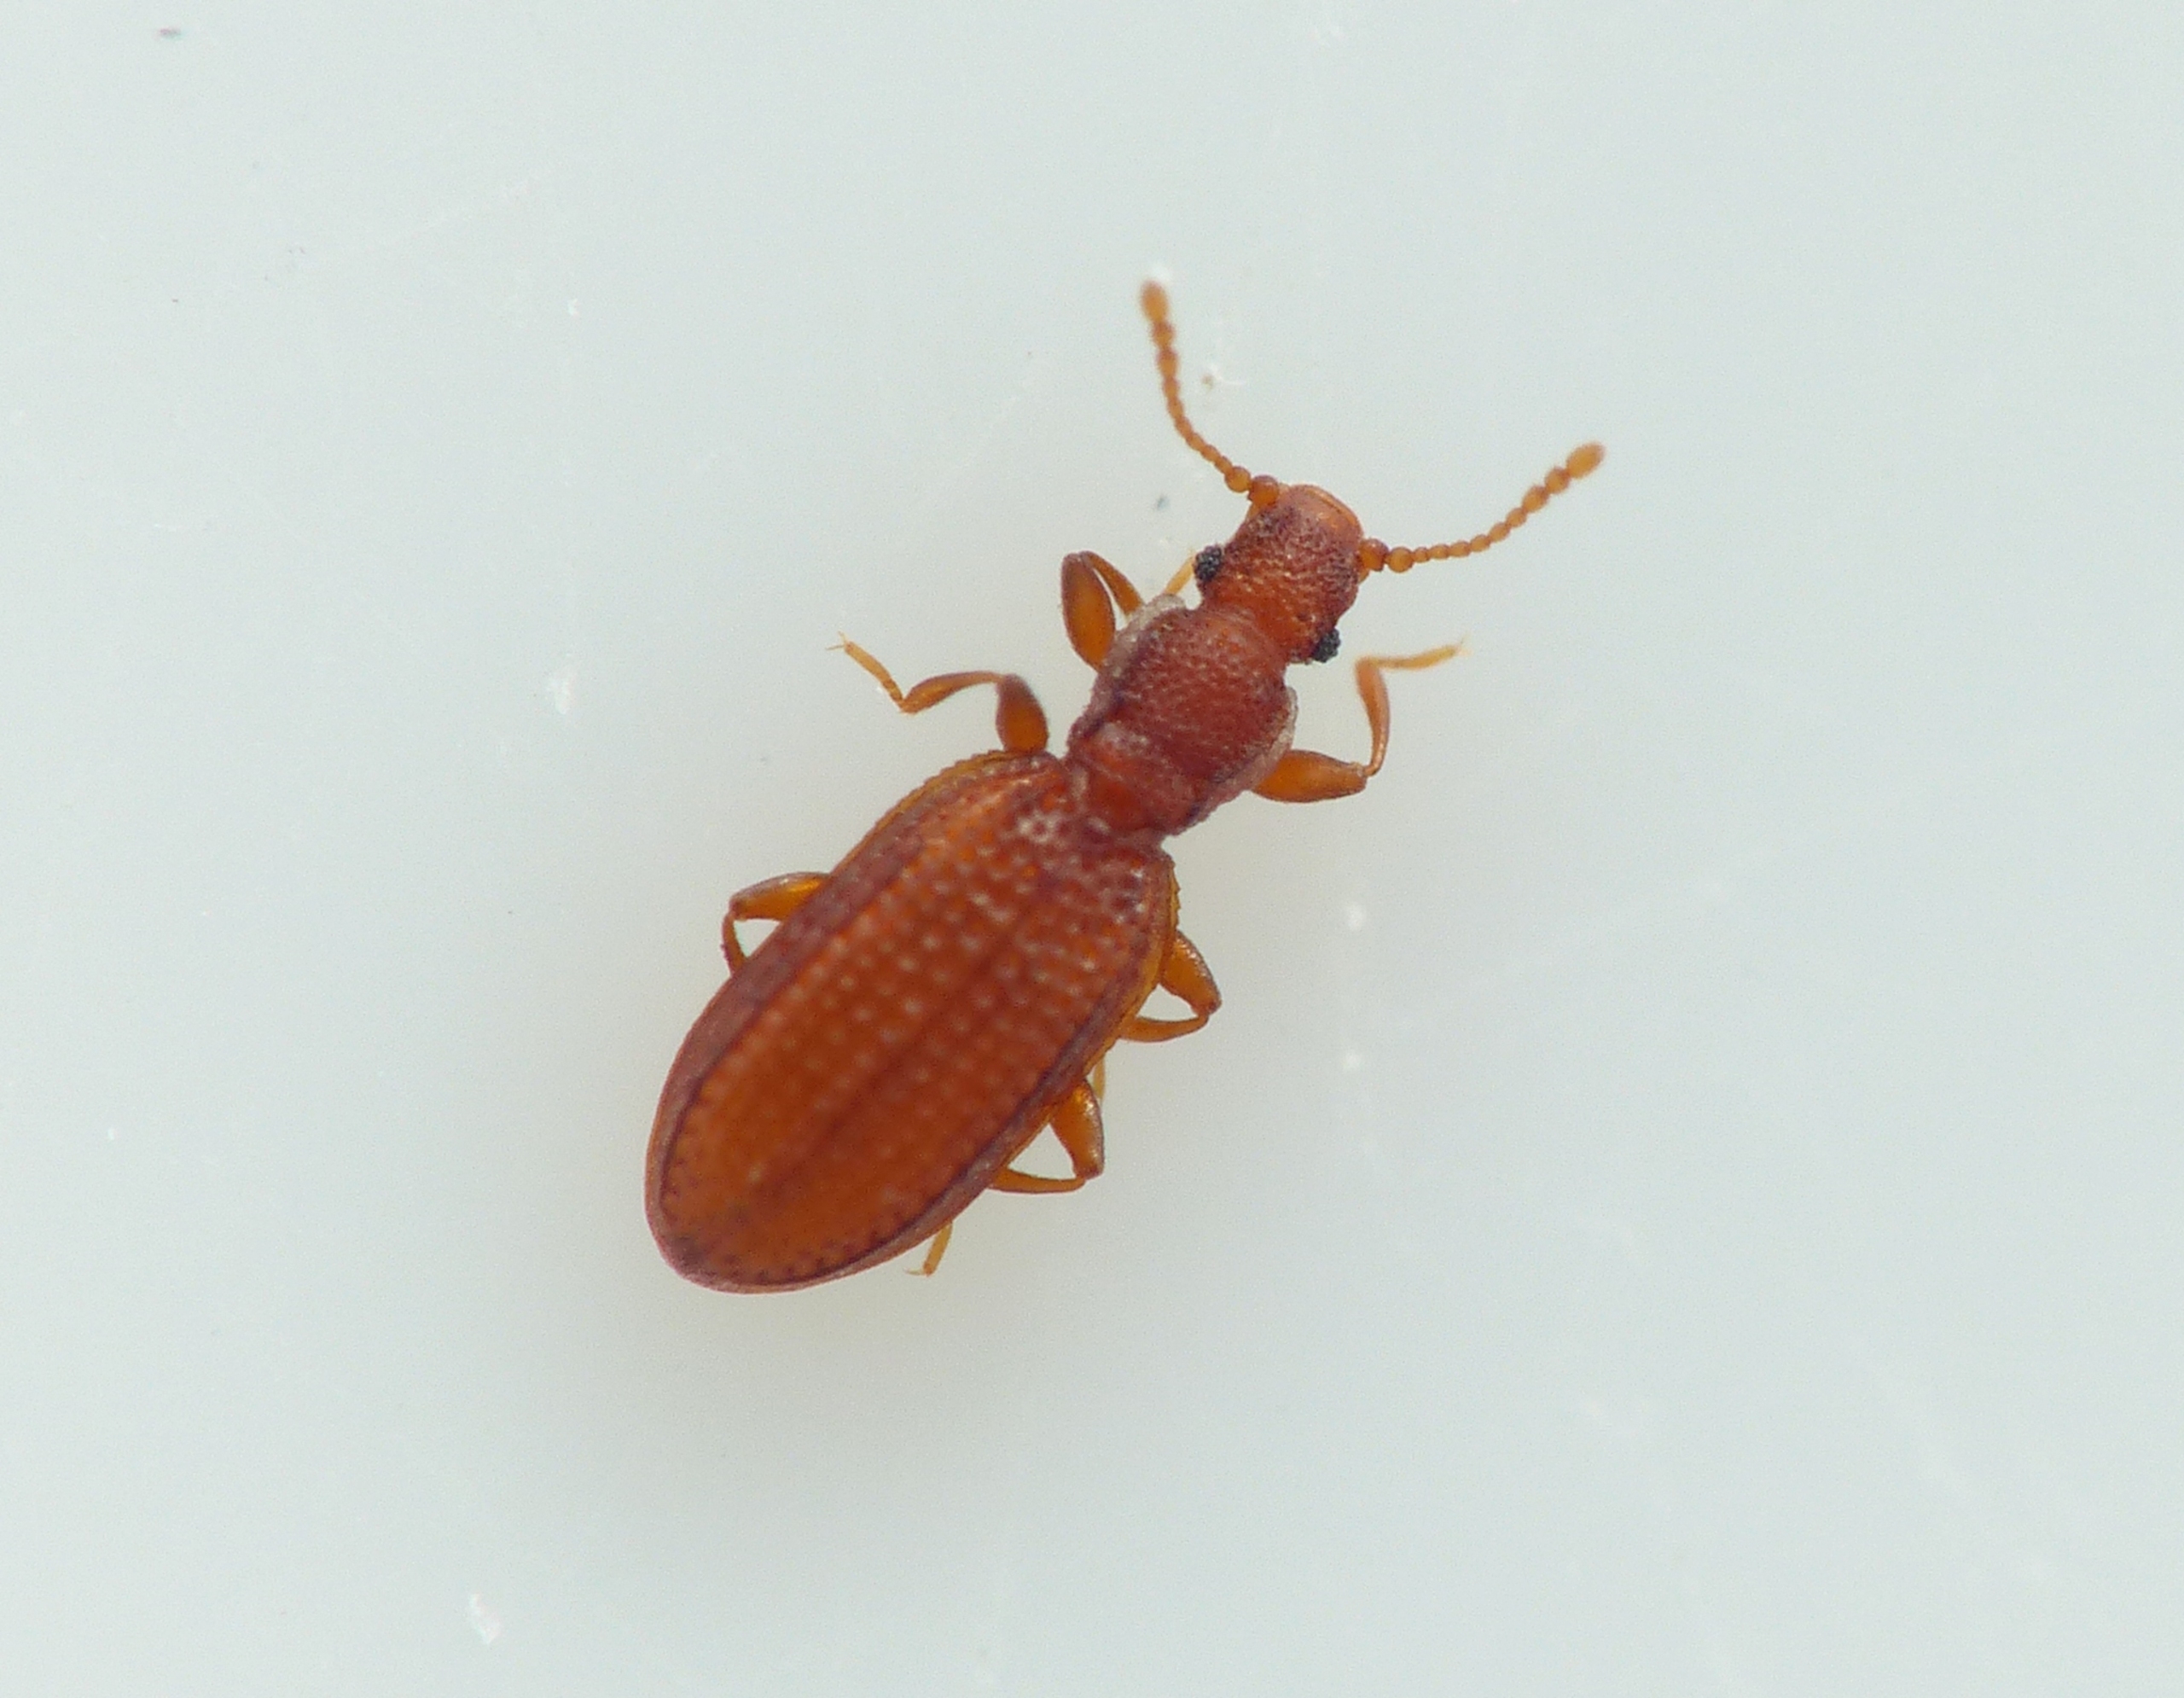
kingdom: Animalia
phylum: Arthropoda
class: Insecta
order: Coleoptera
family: Latridiidae
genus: Dienerella
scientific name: Dienerella vincenti
